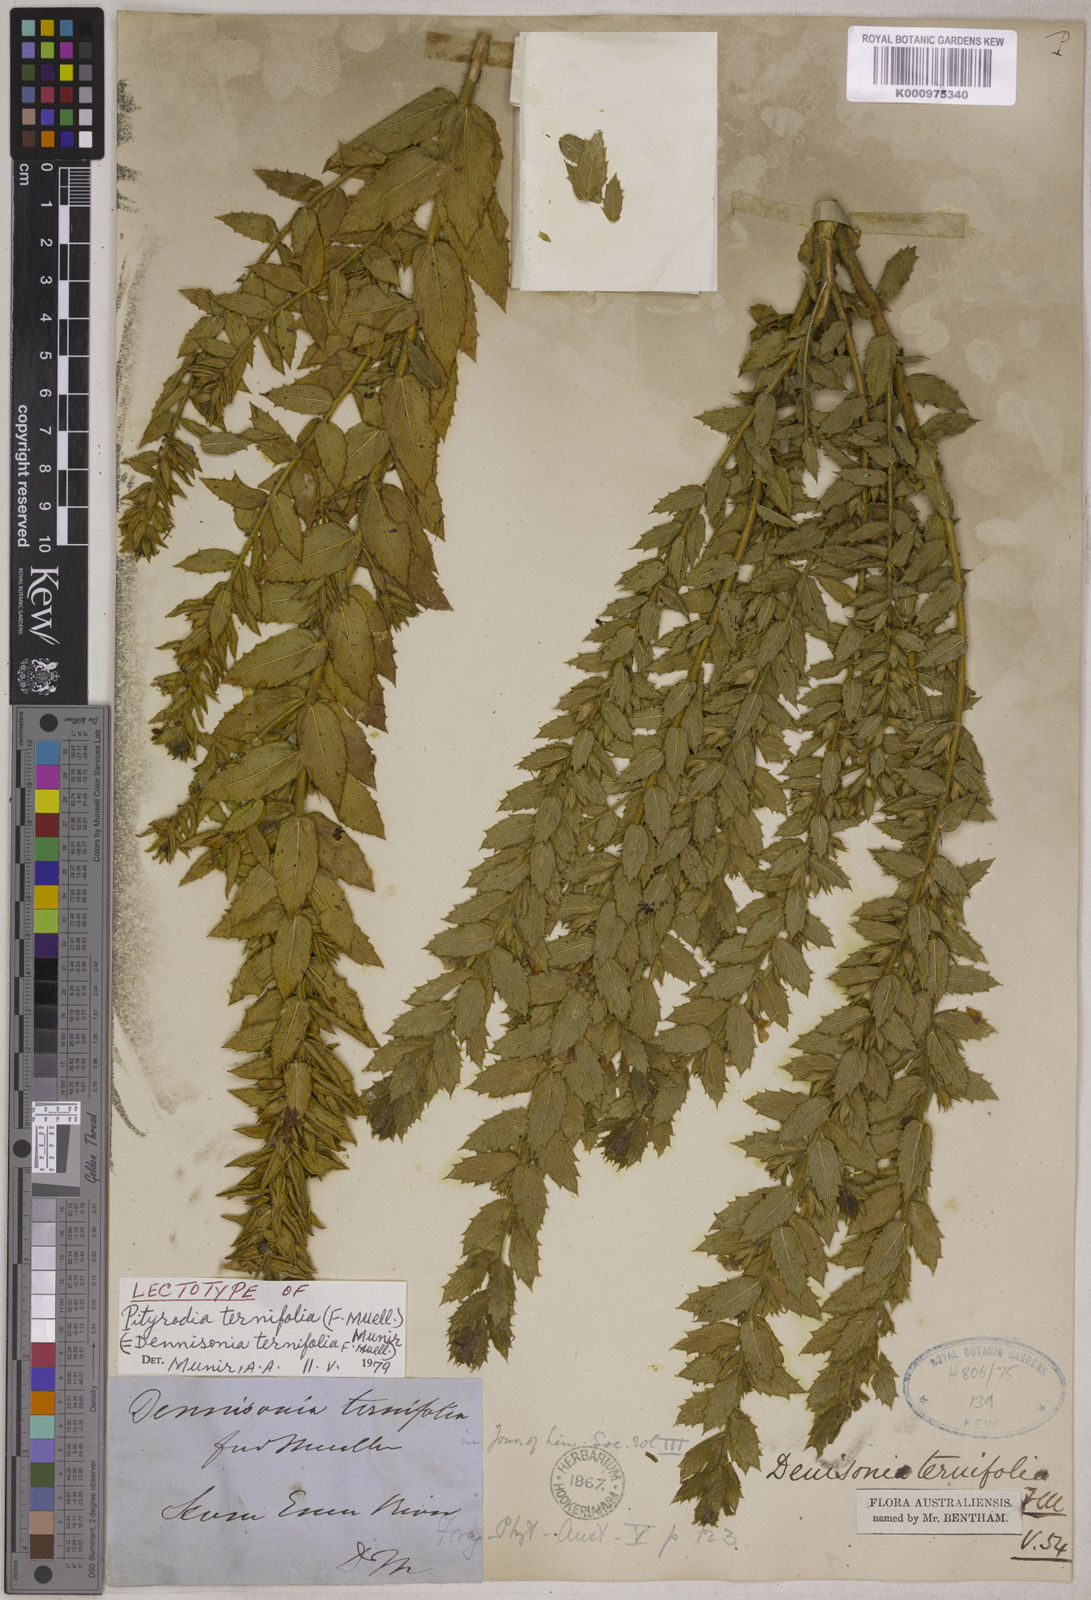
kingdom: Plantae
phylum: Tracheophyta
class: Magnoliopsida
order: Lamiales
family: Lamiaceae
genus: Pityrodia
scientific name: Pityrodia ternifolia
